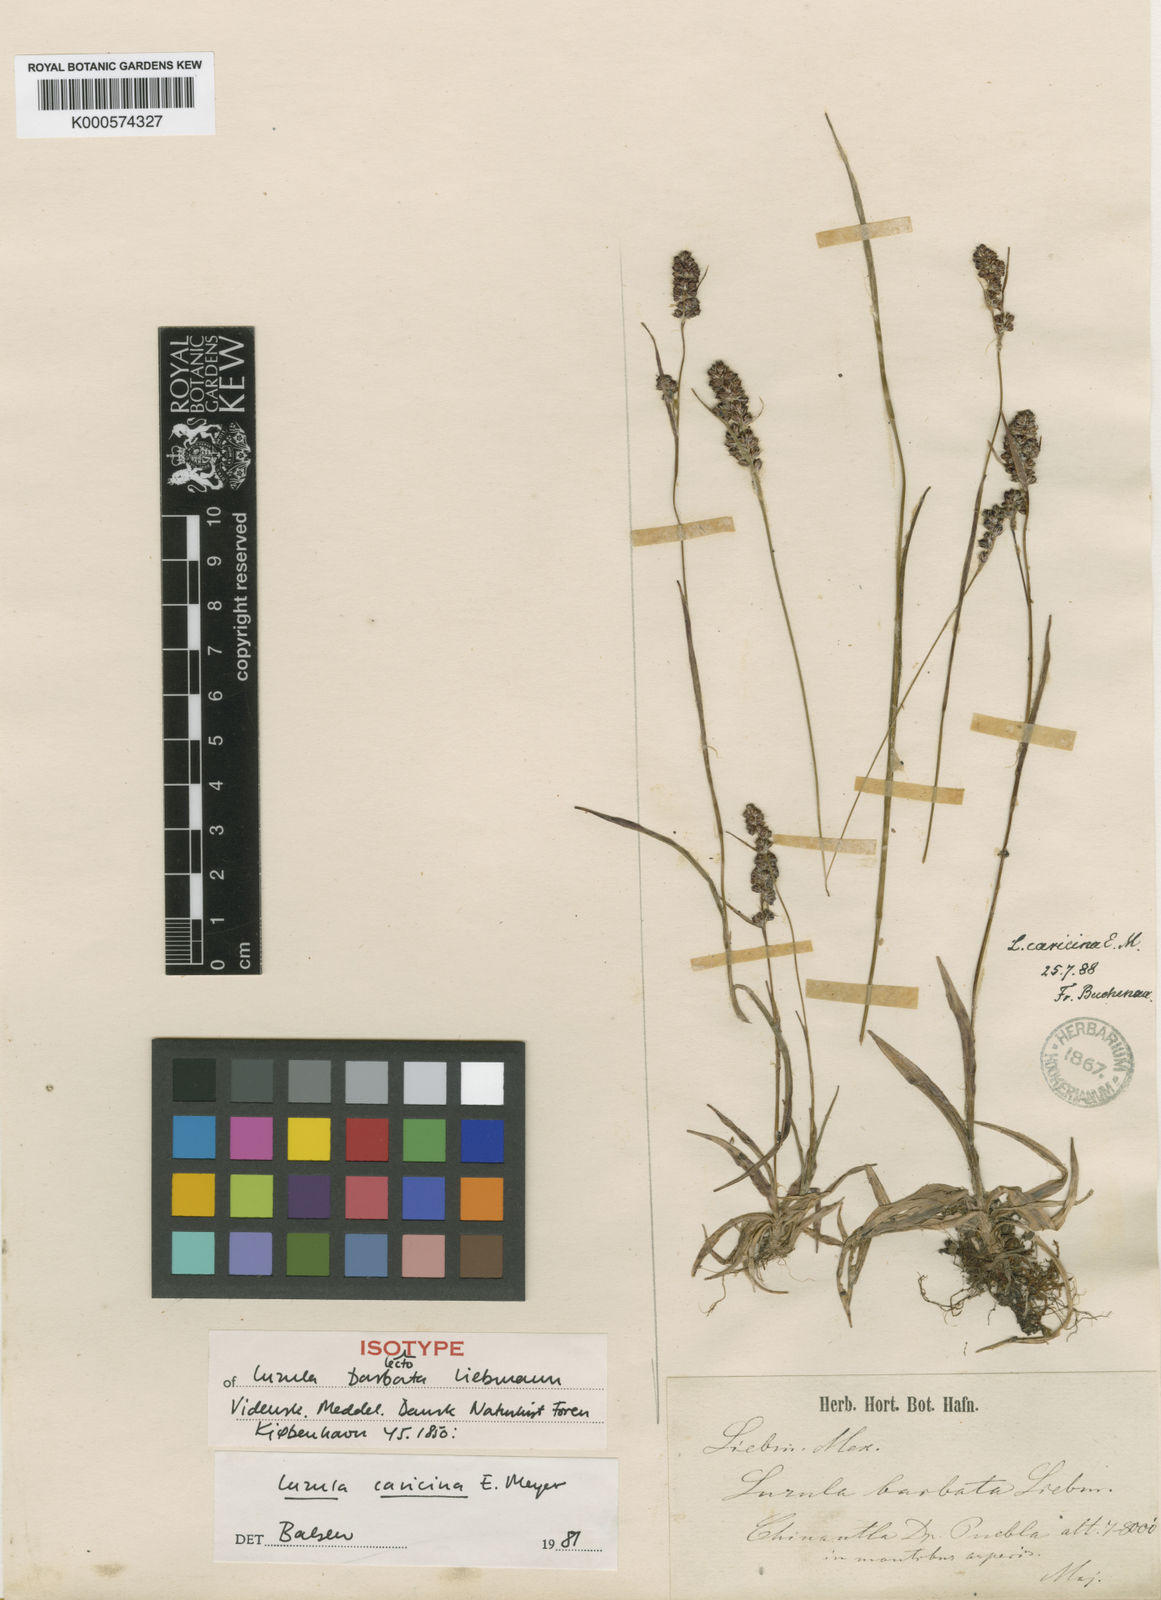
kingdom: Plantae
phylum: Tracheophyta
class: Liliopsida
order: Poales
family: Juncaceae
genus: Luzula
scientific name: Luzula caricina
